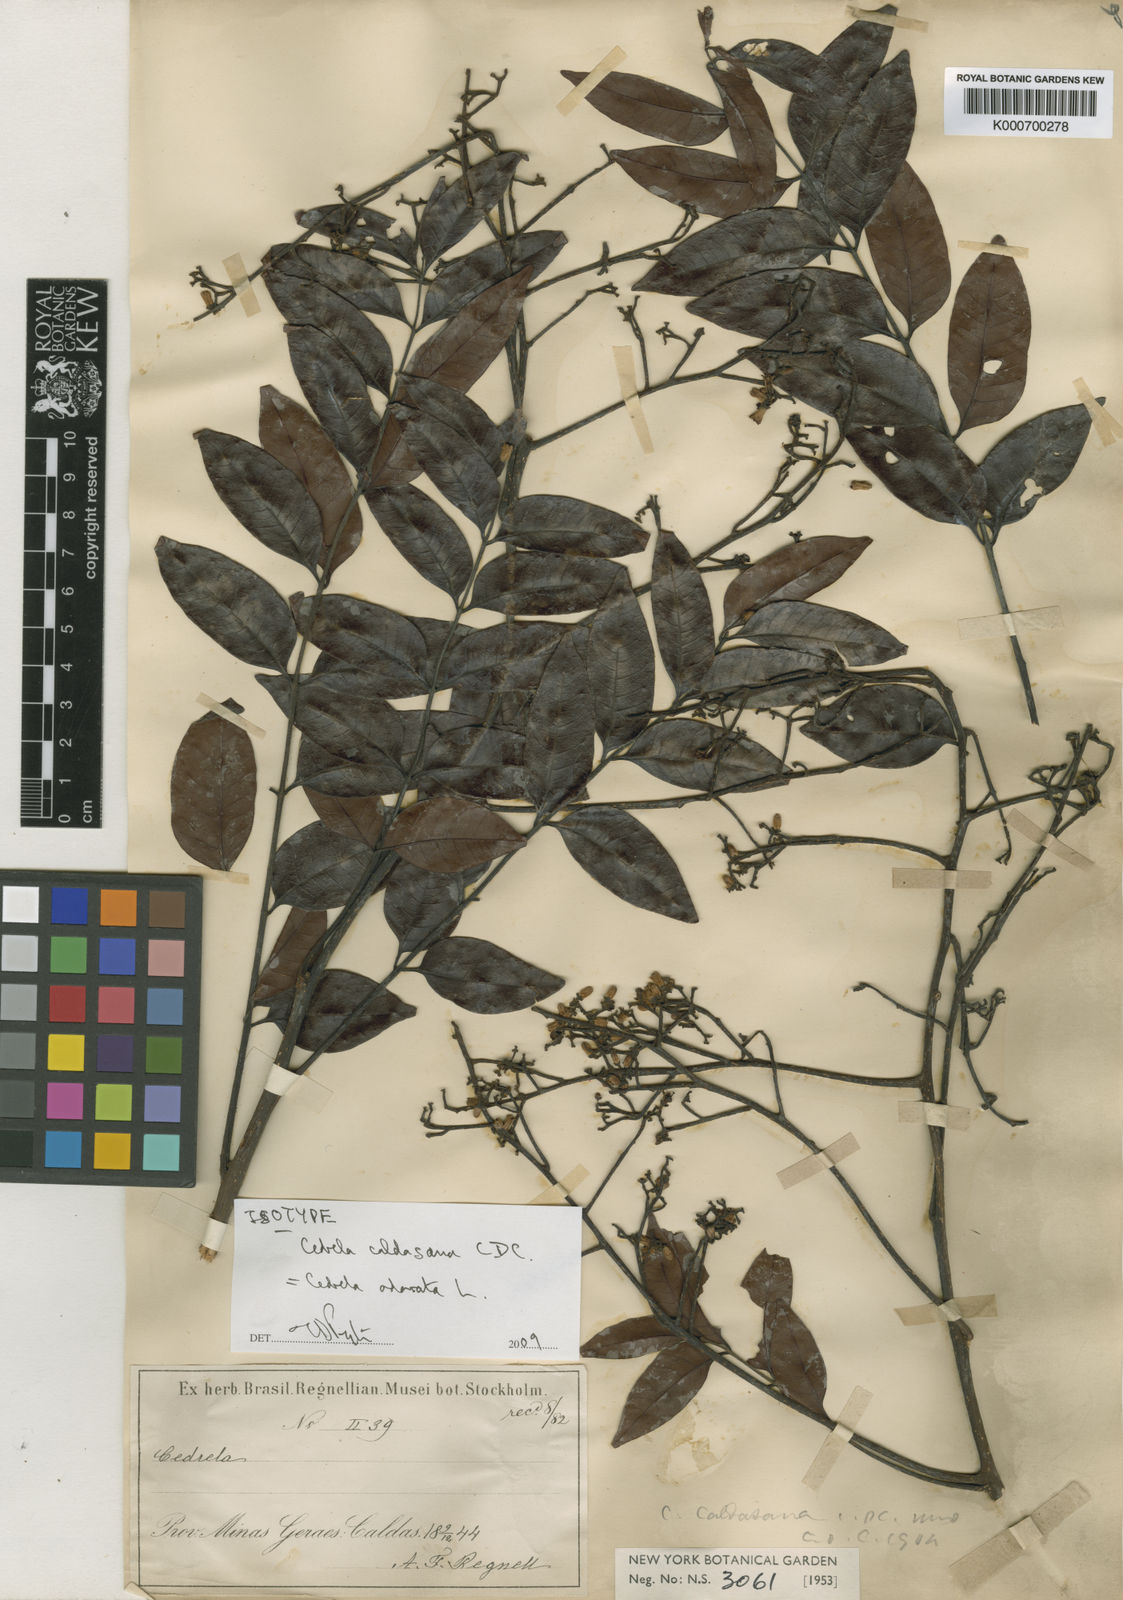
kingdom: Plantae
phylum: Tracheophyta
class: Magnoliopsida
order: Sapindales
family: Meliaceae
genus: Cedrela
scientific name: Cedrela odorata
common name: Red cedar
